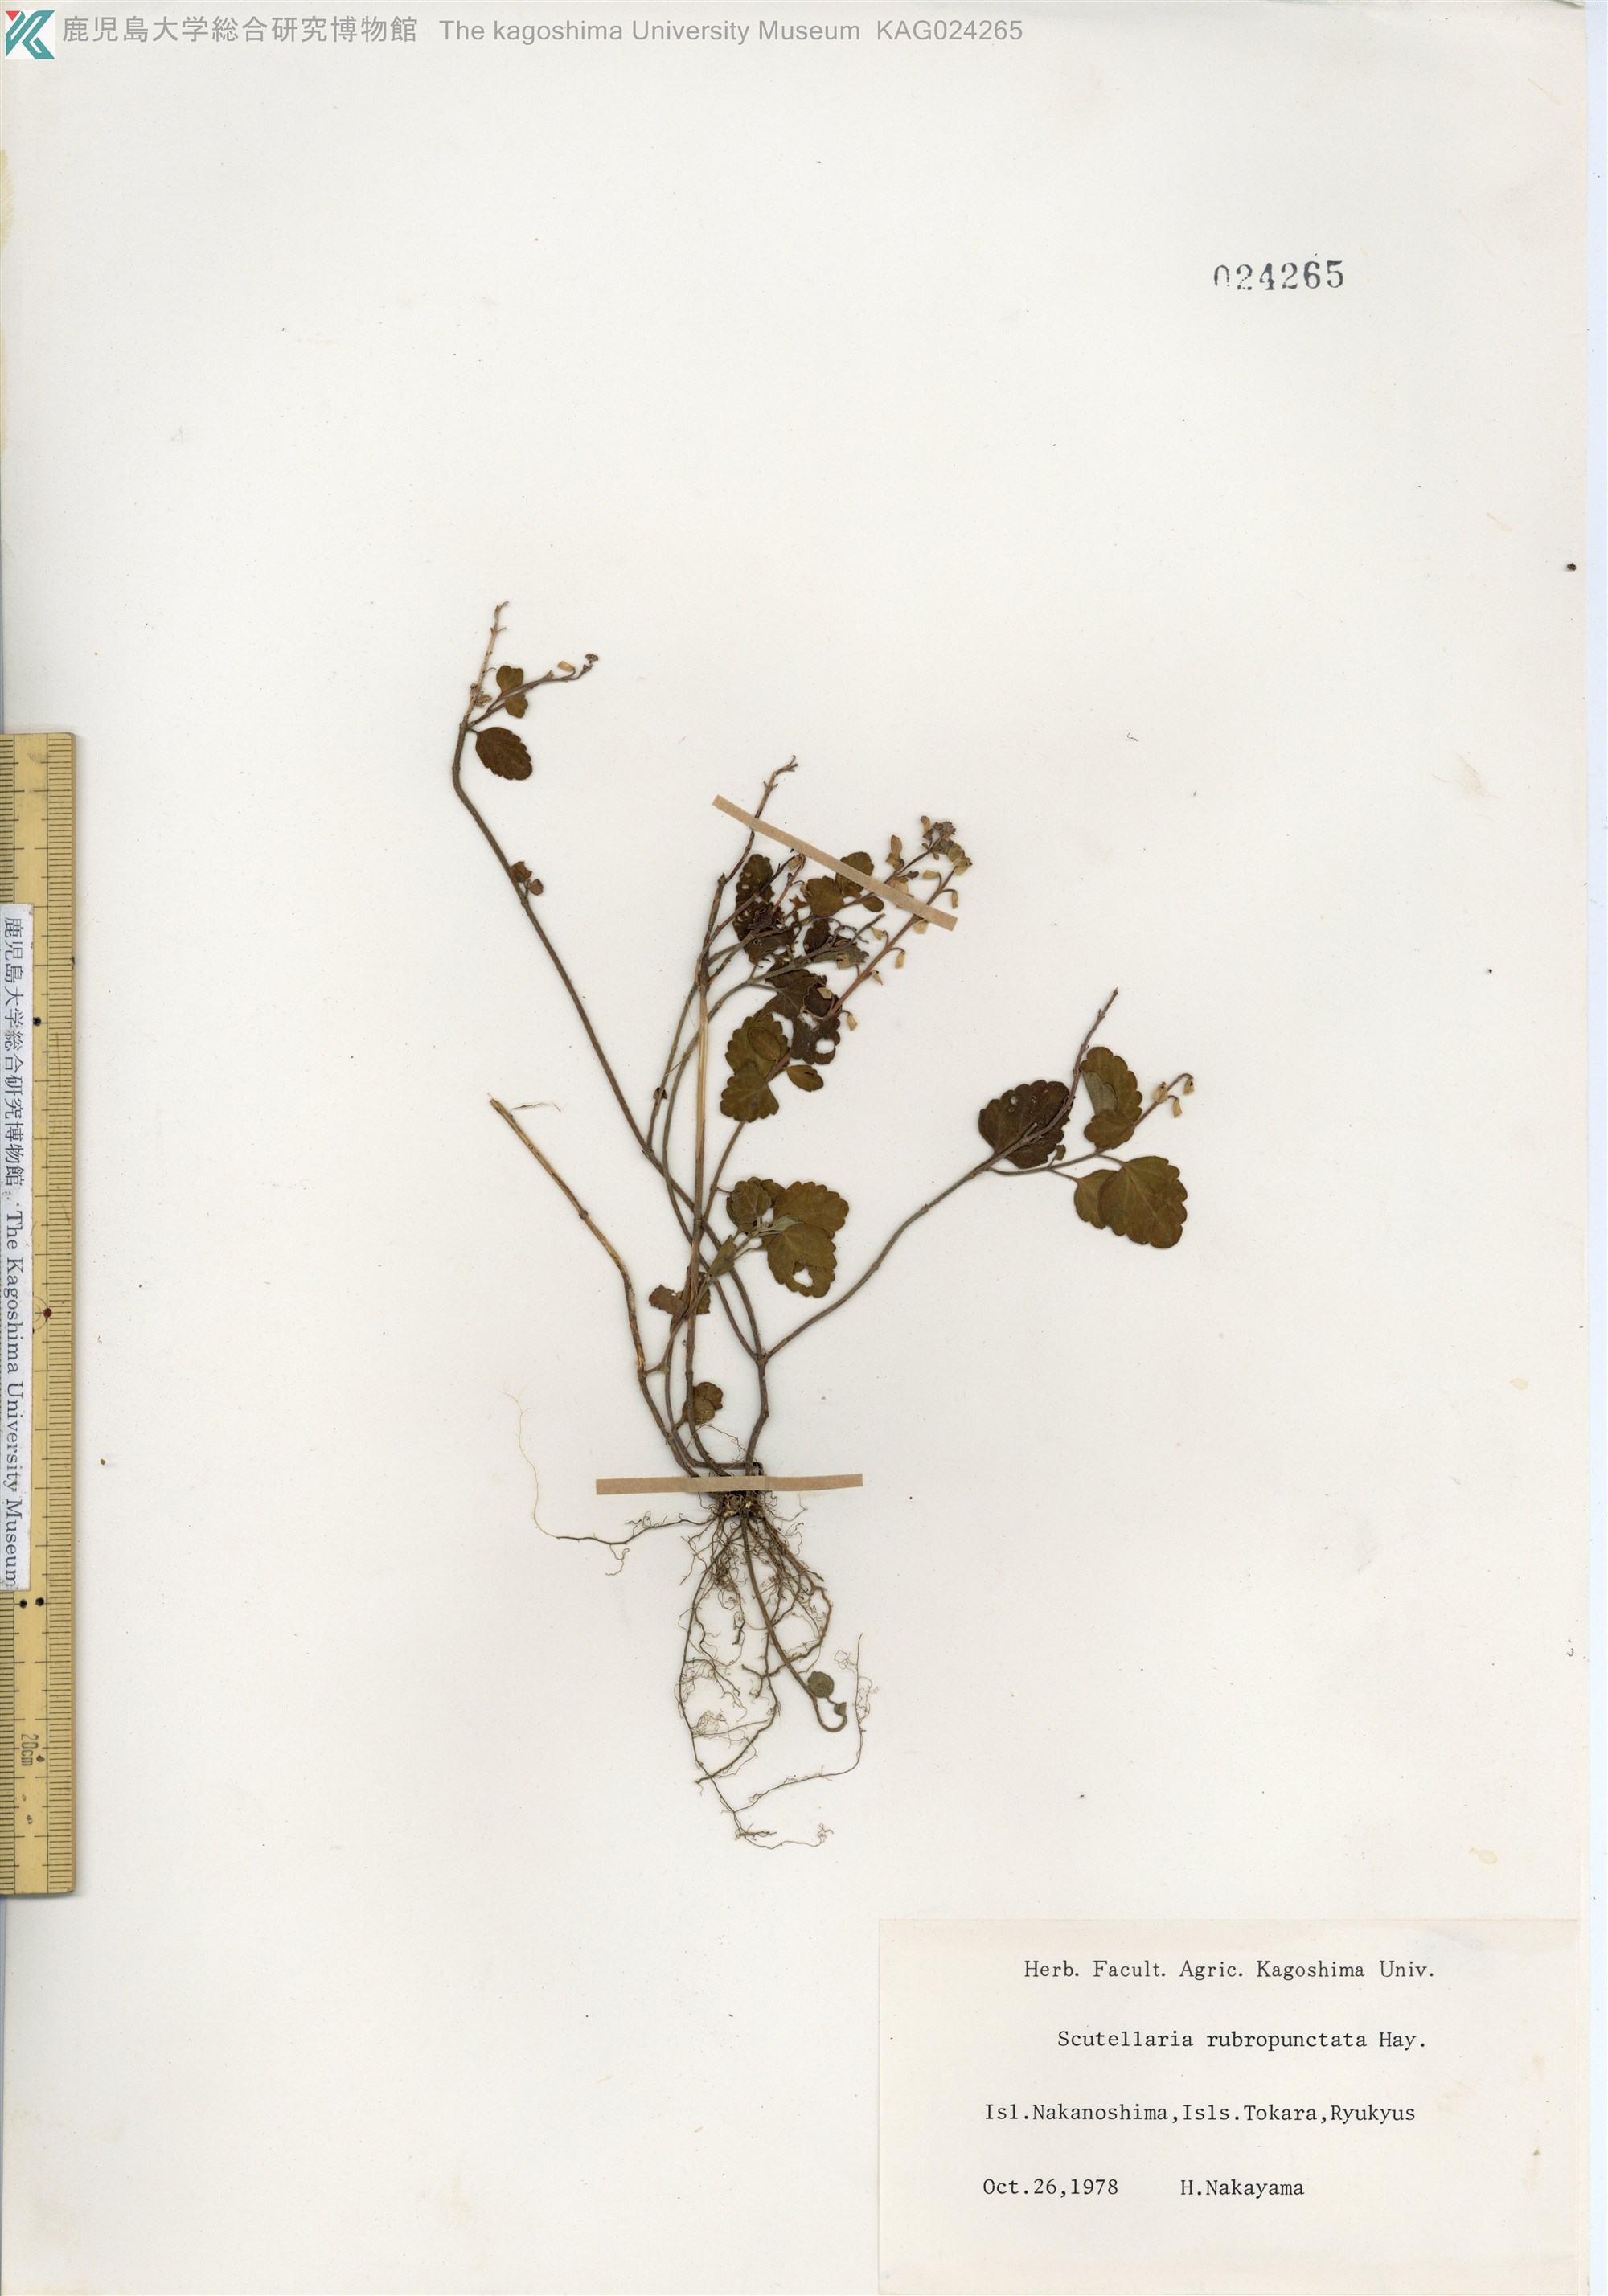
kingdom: Plantae
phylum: Tracheophyta
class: Magnoliopsida
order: Lamiales
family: Lamiaceae
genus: Scutellaria
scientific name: Scutellaria rubropunctata
